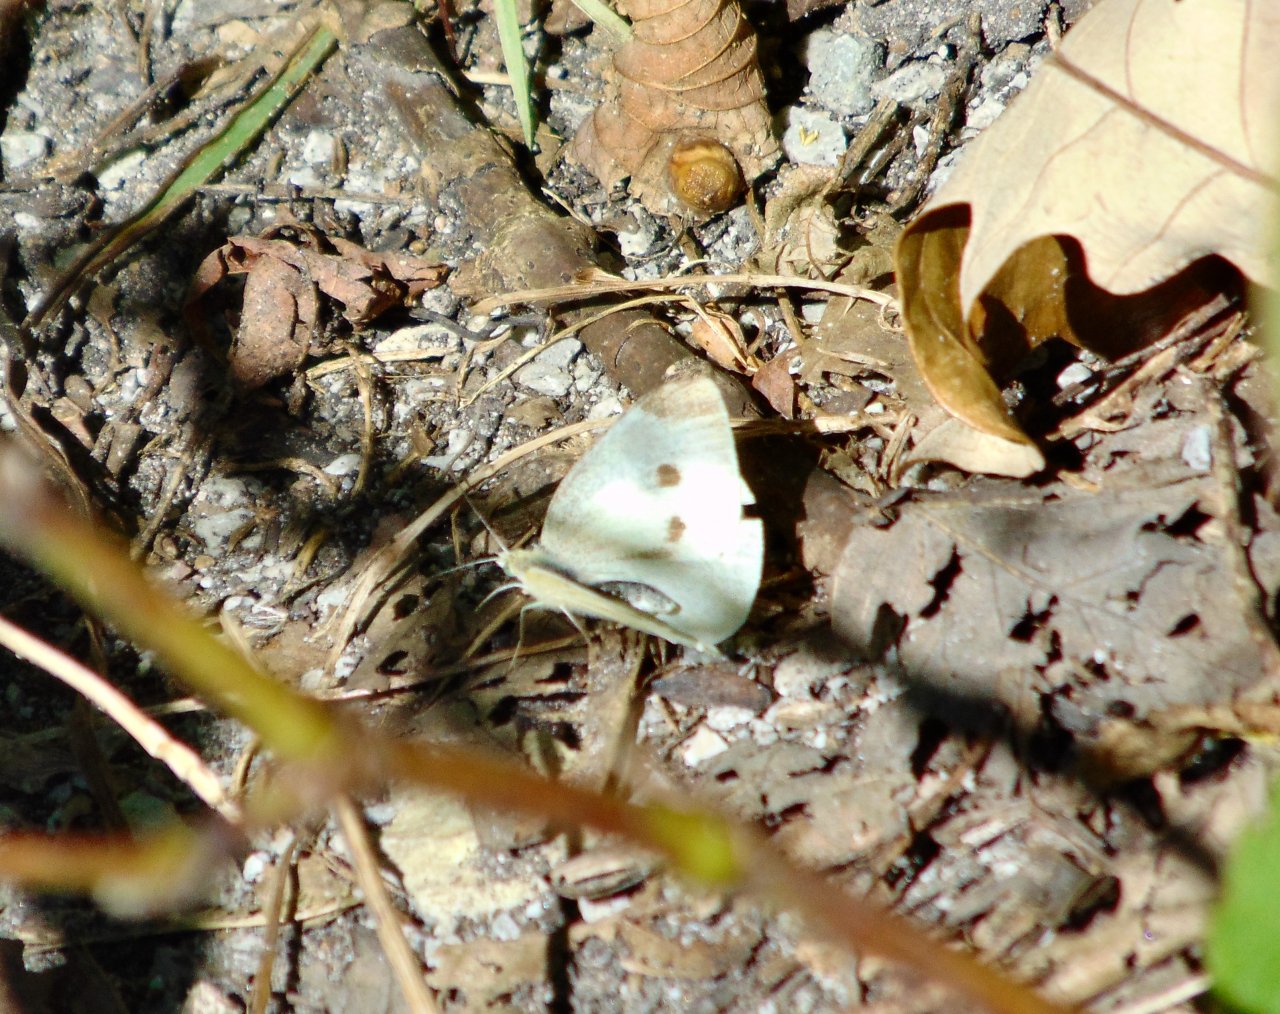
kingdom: Animalia
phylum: Arthropoda
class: Insecta
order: Lepidoptera
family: Pieridae
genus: Pieris
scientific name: Pieris rapae
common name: Cabbage White
